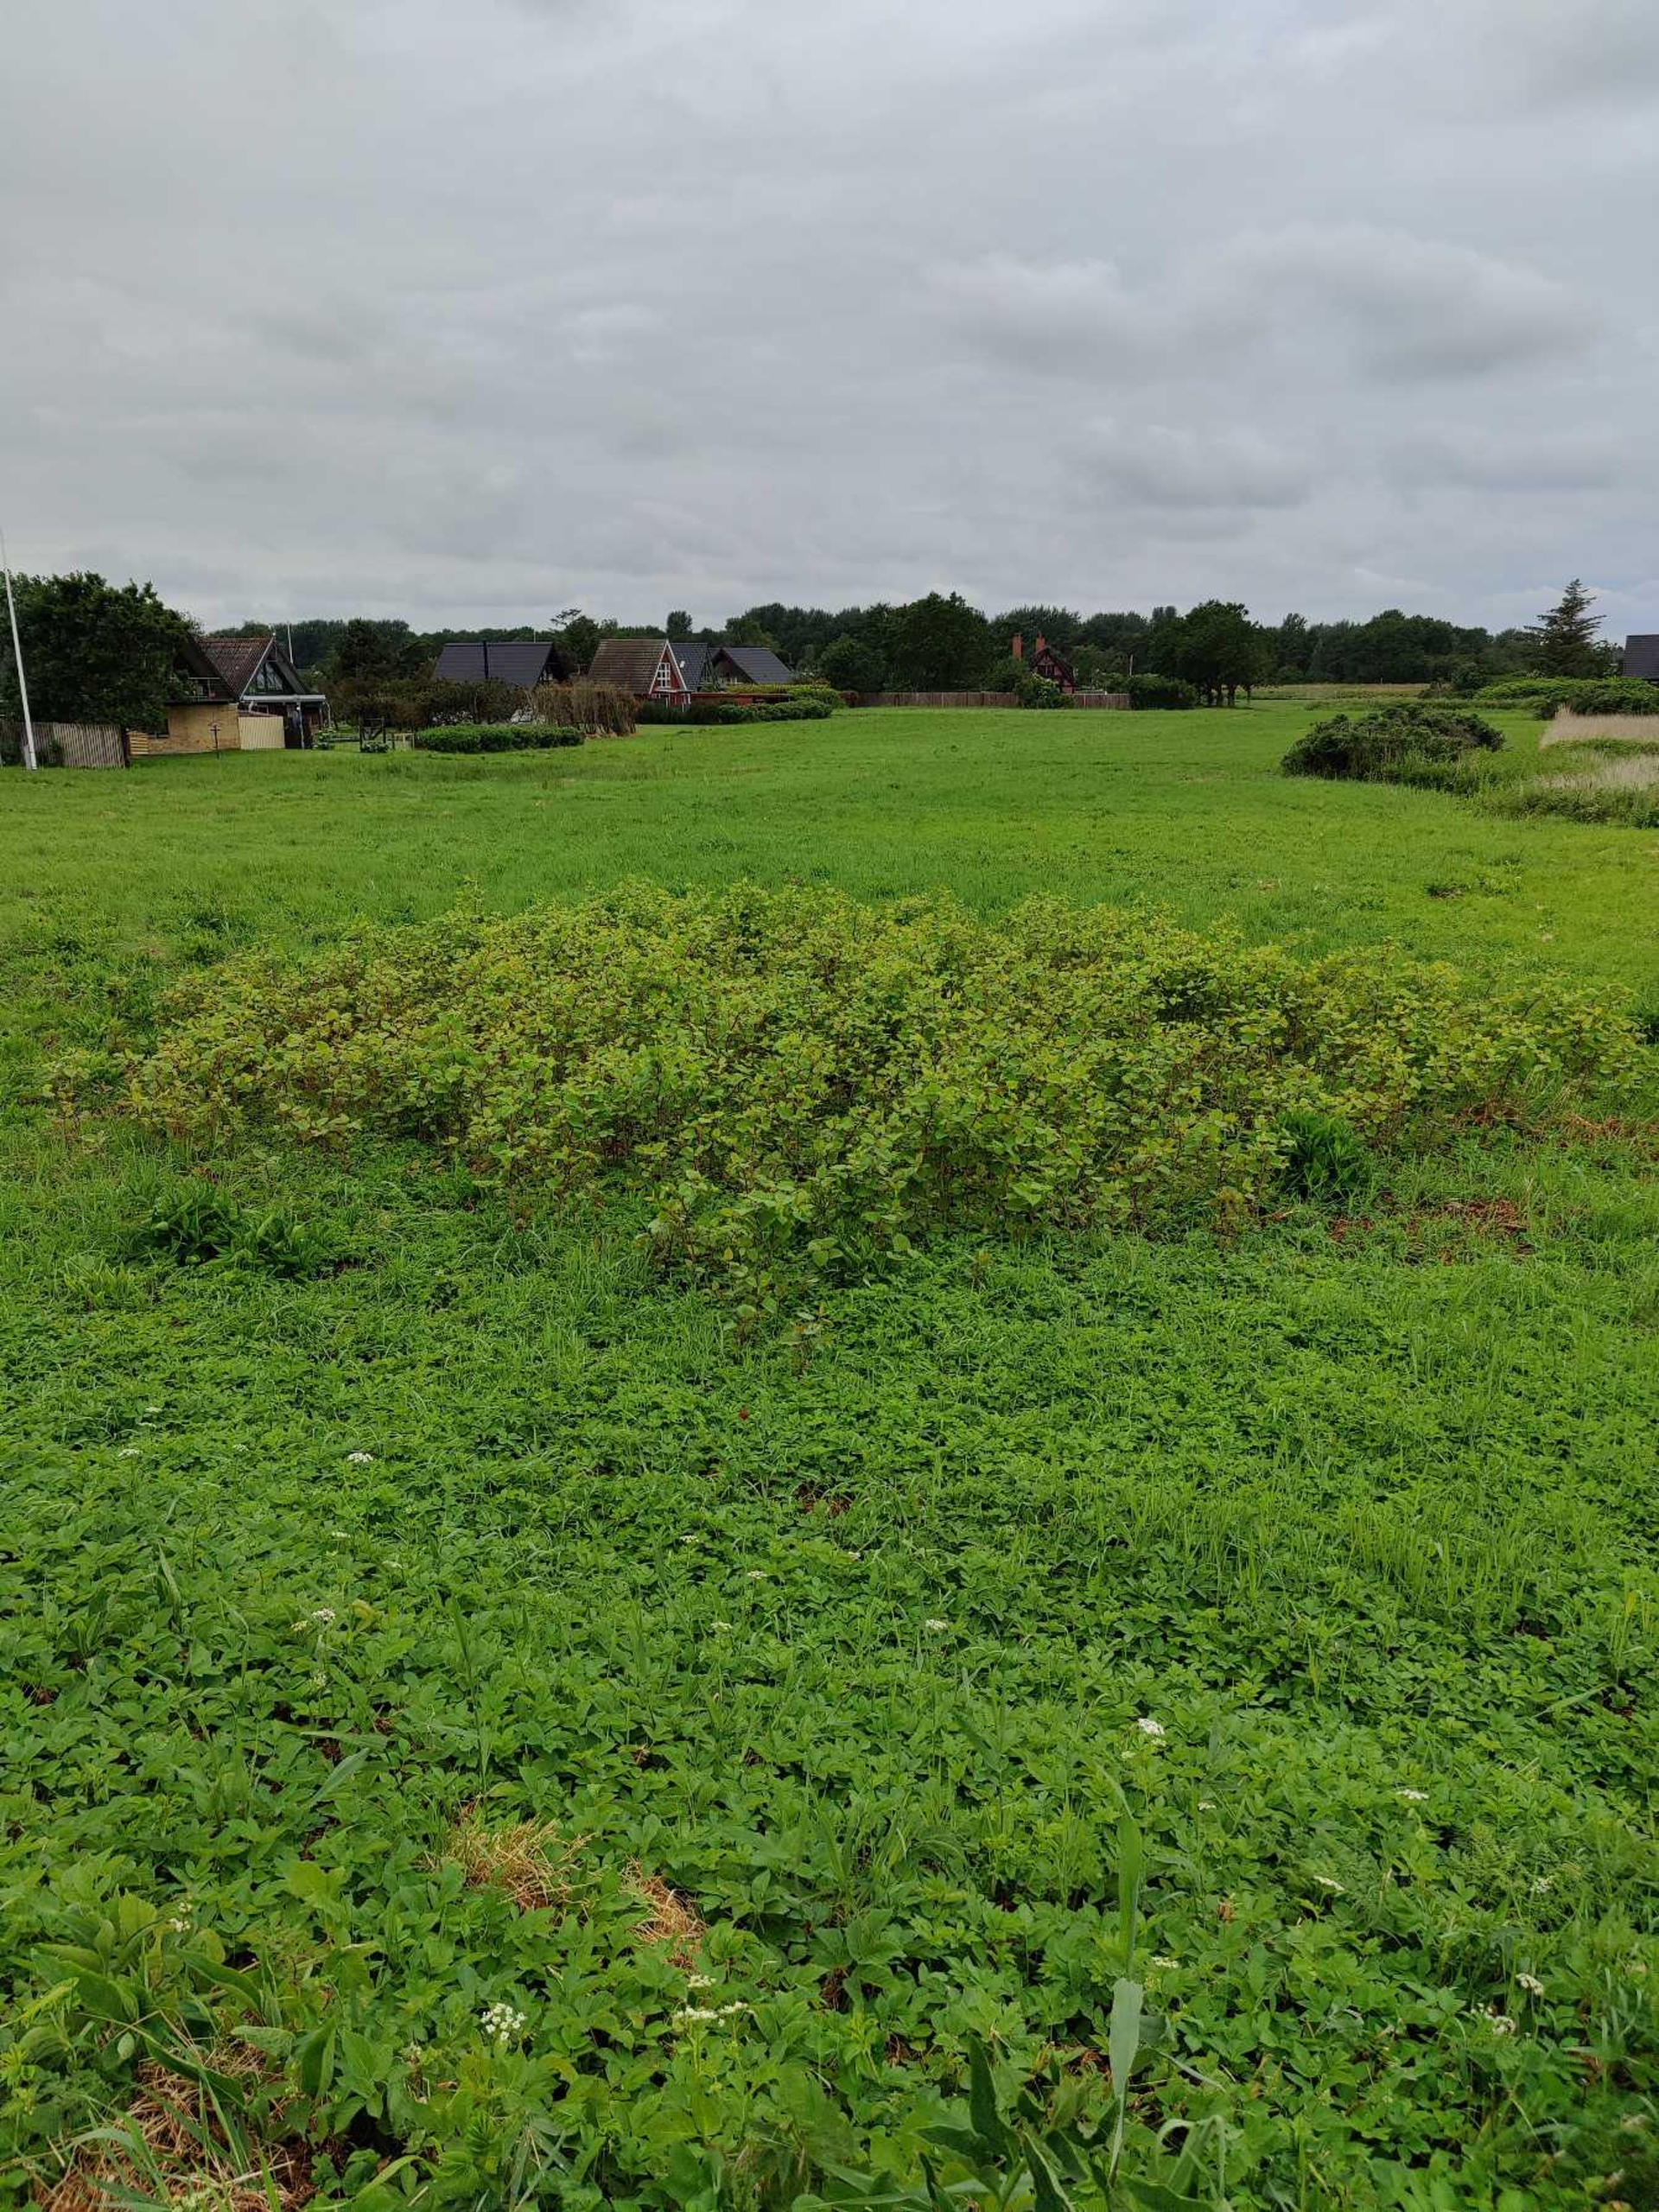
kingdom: Plantae
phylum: Tracheophyta
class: Magnoliopsida
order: Caryophyllales
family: Polygonaceae
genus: Reynoutria
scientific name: Reynoutria japonica
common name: Japan-pileurt
